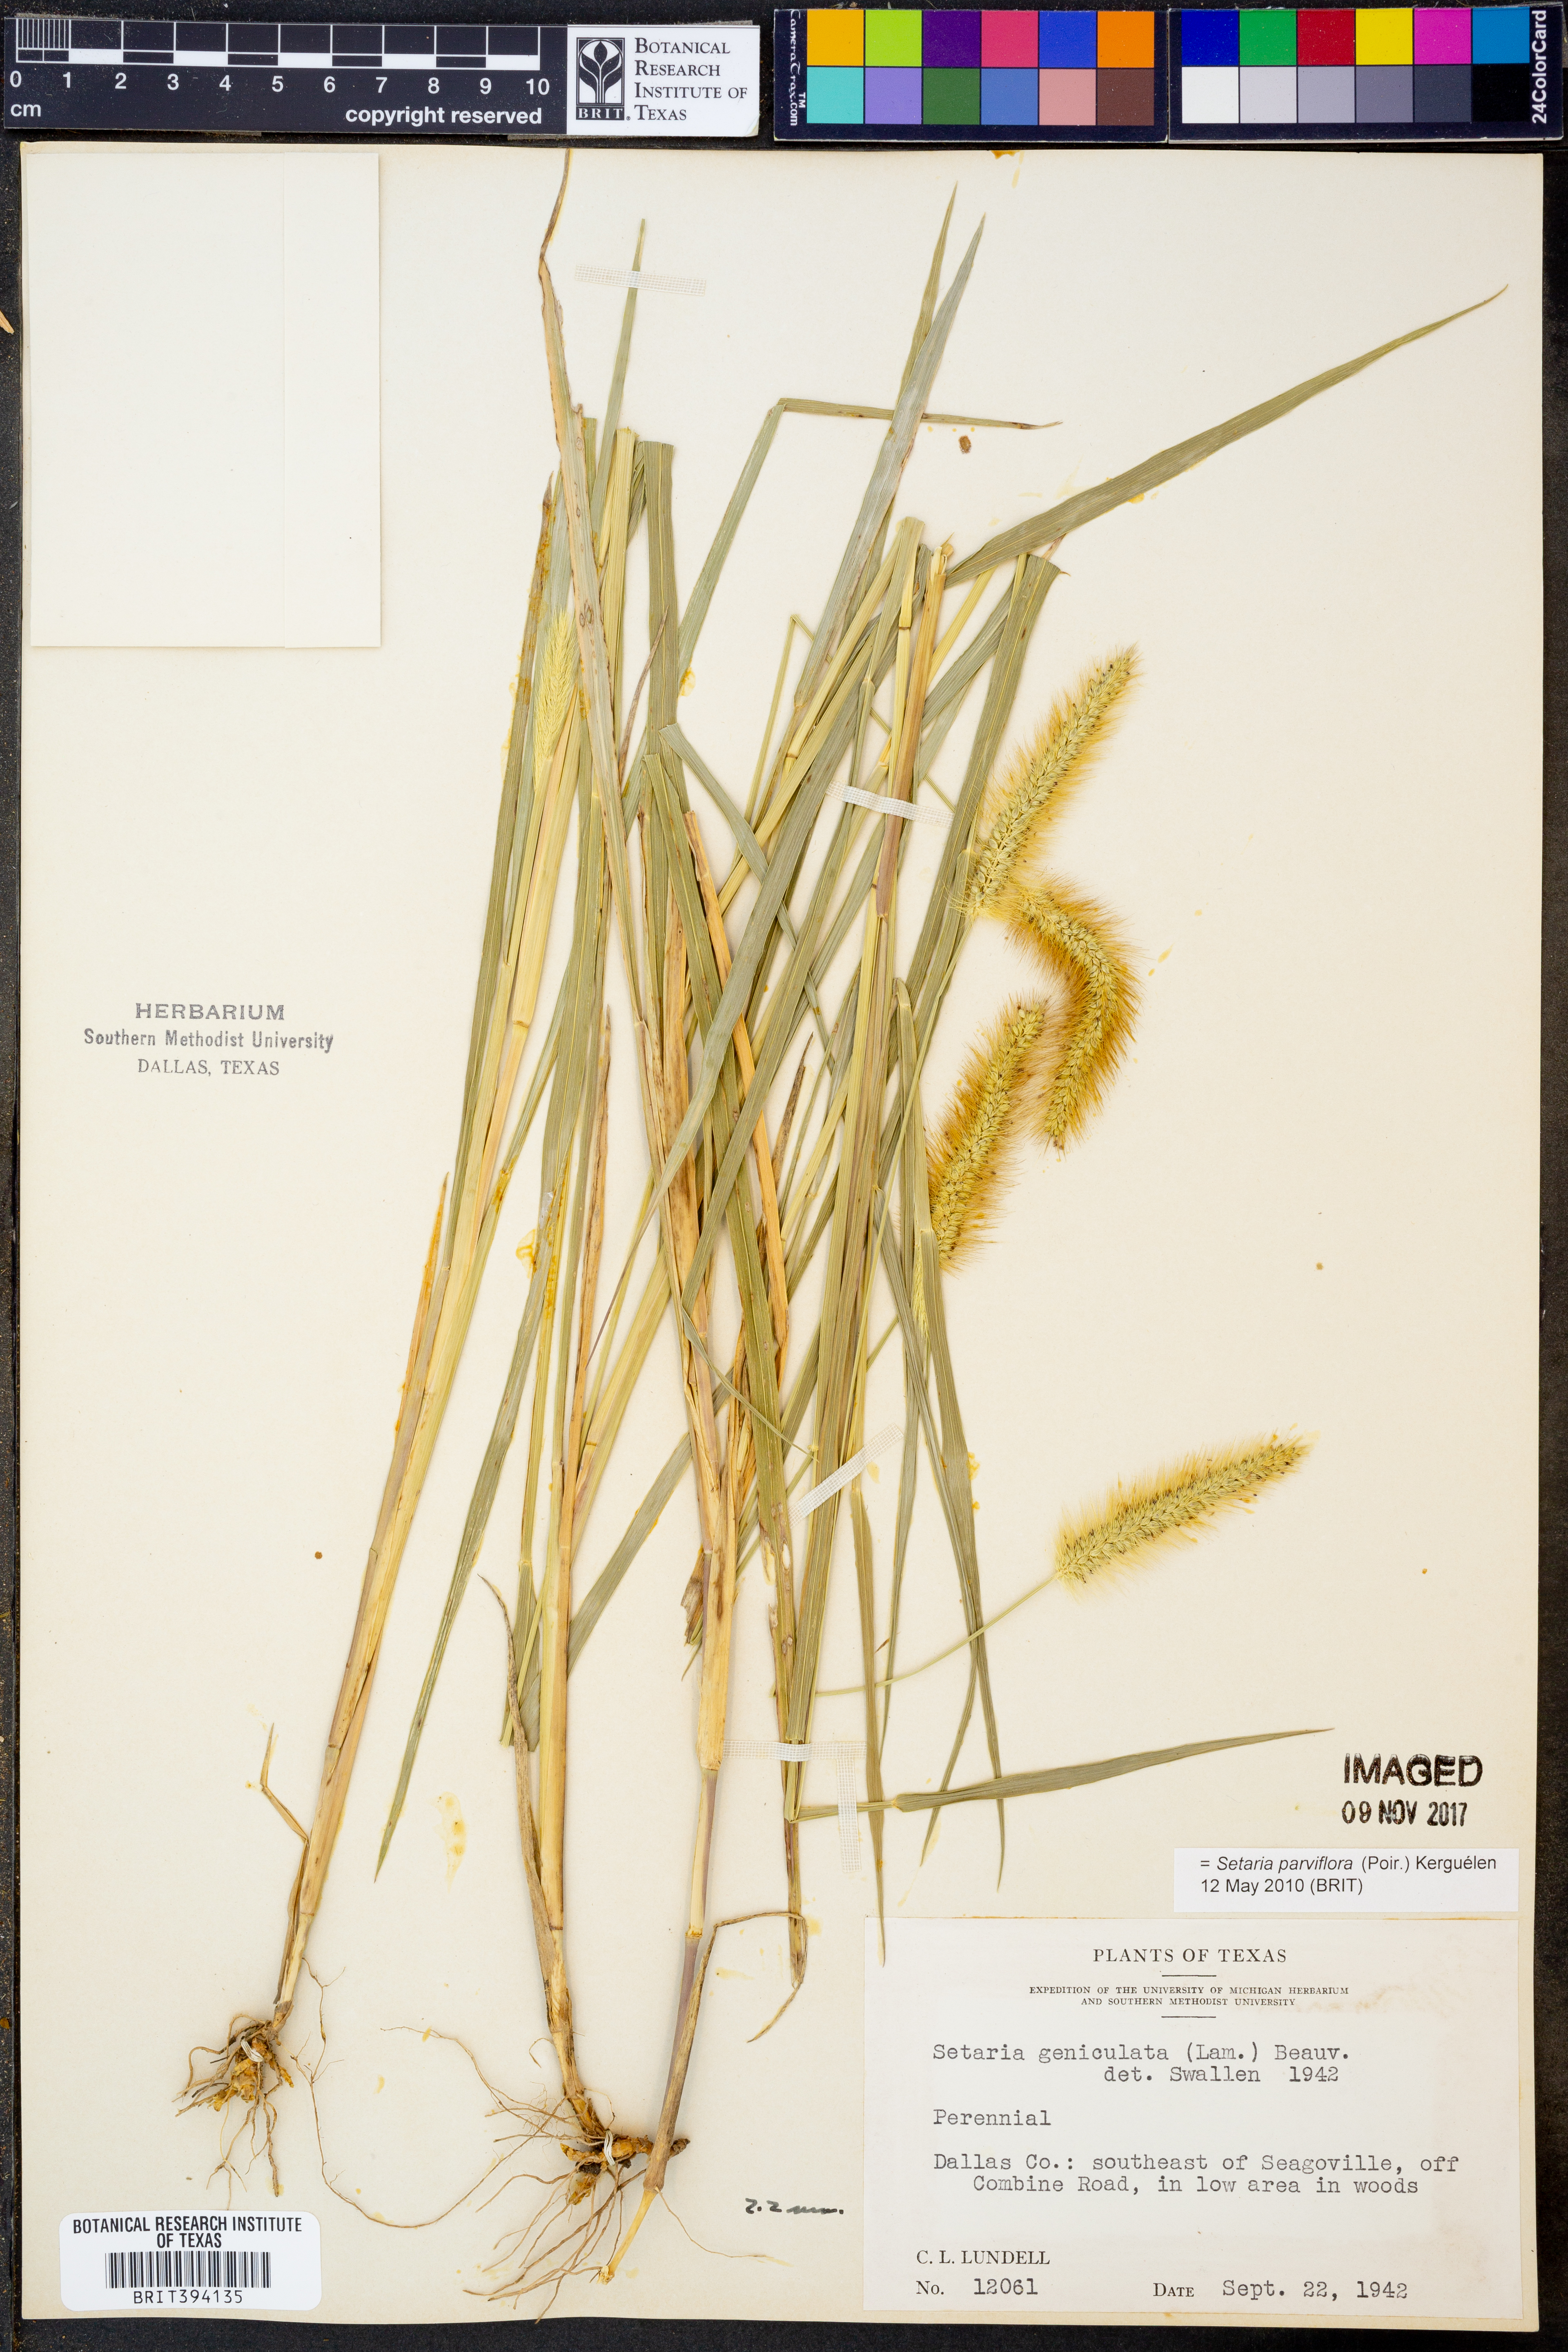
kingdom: Plantae
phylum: Tracheophyta
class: Liliopsida
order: Poales
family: Poaceae
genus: Setaria
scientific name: Setaria parviflora
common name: Knotroot bristle-grass
